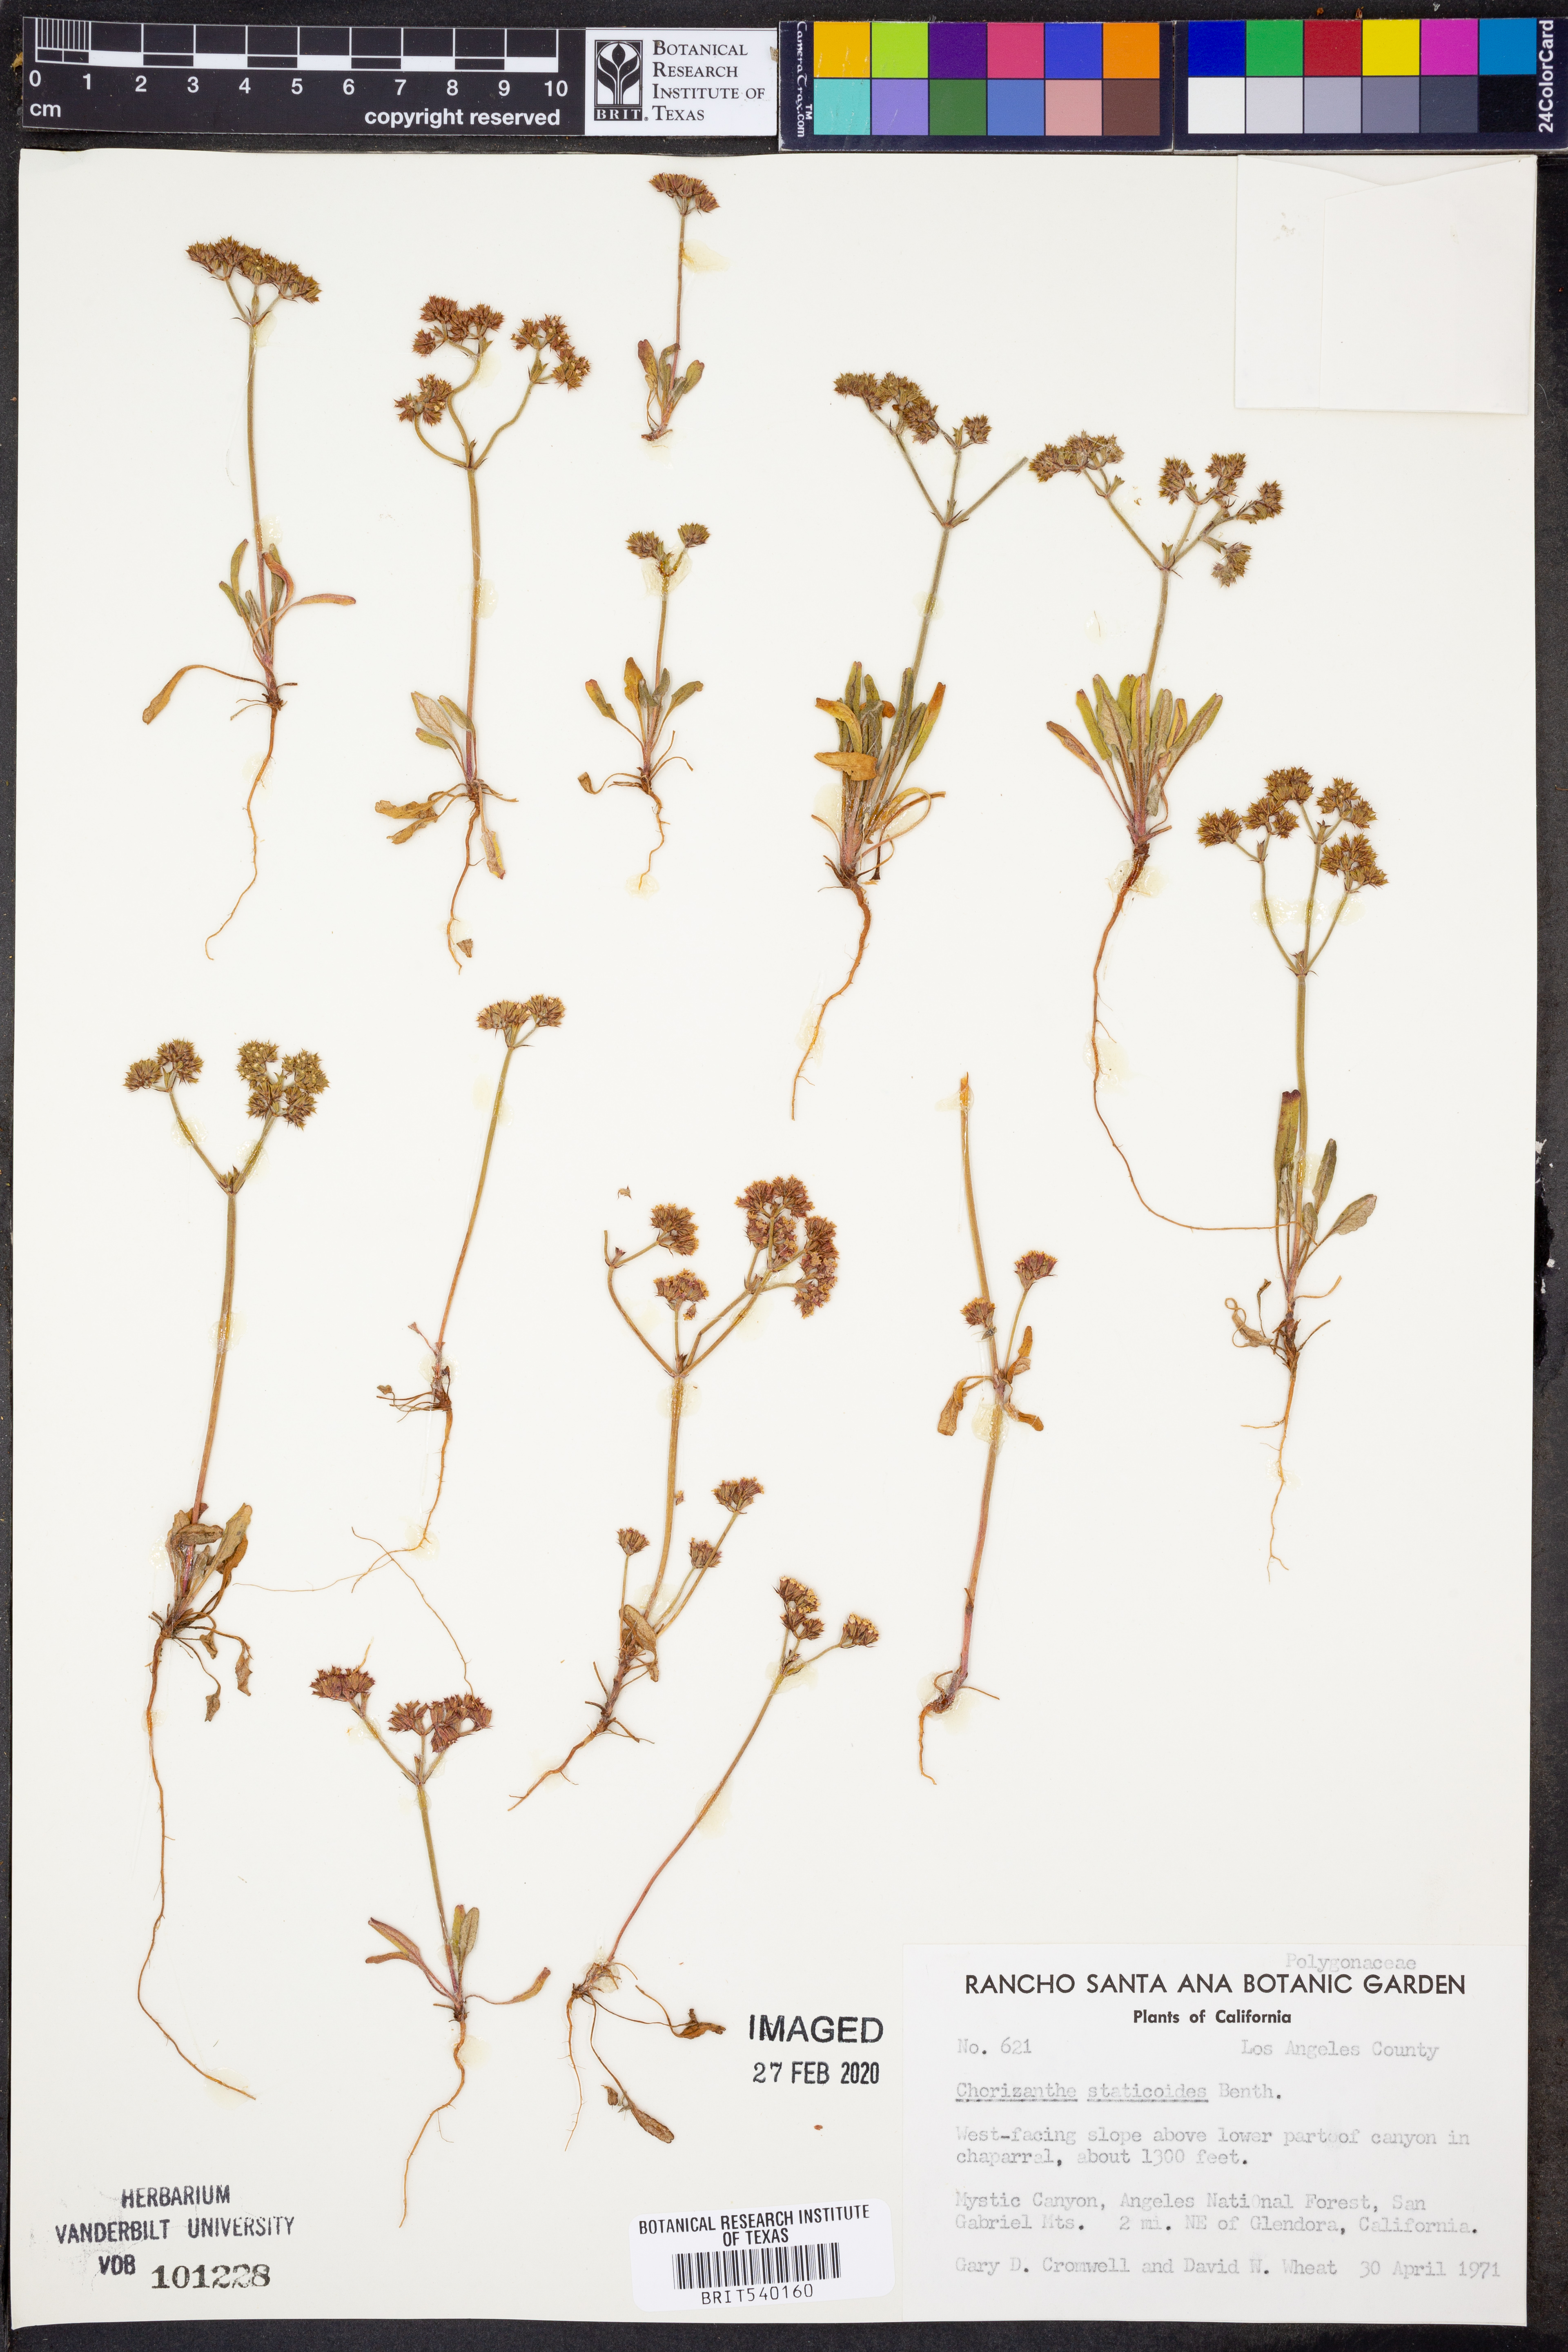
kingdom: Plantae
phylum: Tracheophyta
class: Magnoliopsida
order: Caryophyllales
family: Polygonaceae
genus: Chorizanthe
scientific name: Chorizanthe staticoides
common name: Turkish rugging
